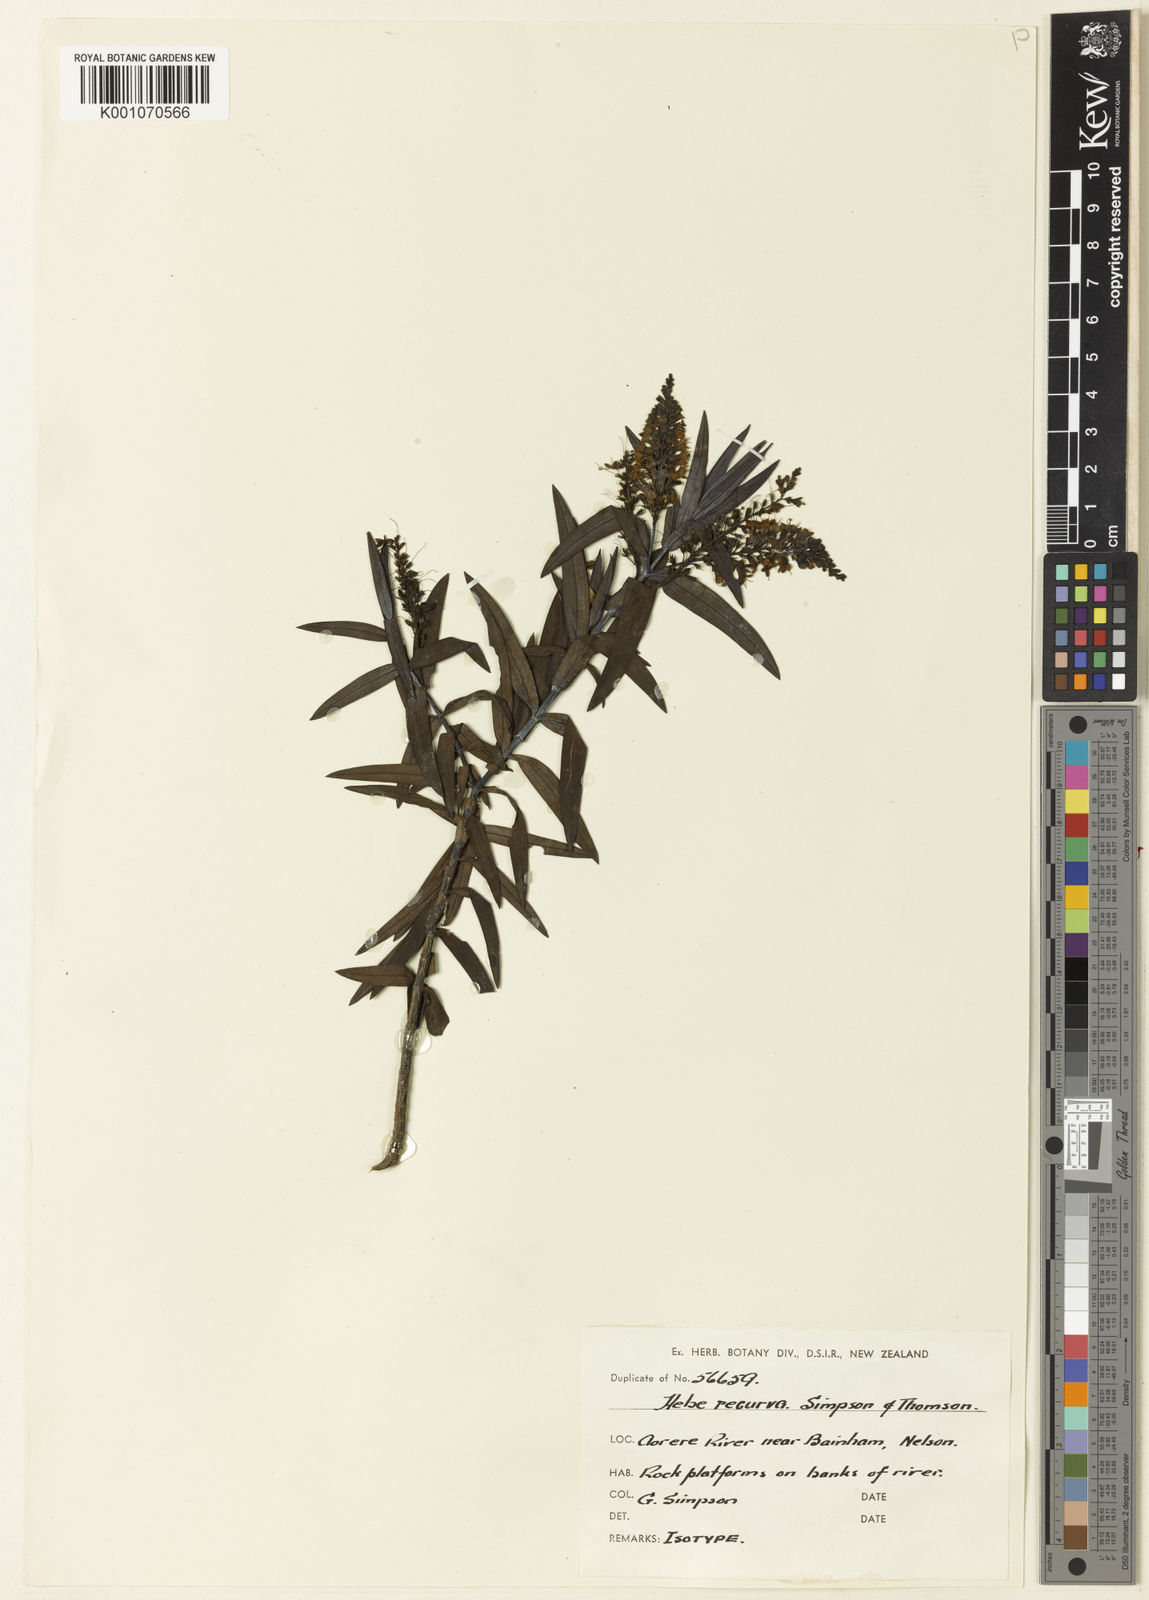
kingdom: Plantae
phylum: Tracheophyta
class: Magnoliopsida
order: Lamiales
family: Plantaginaceae
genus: Veronica
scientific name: Veronica albicans
